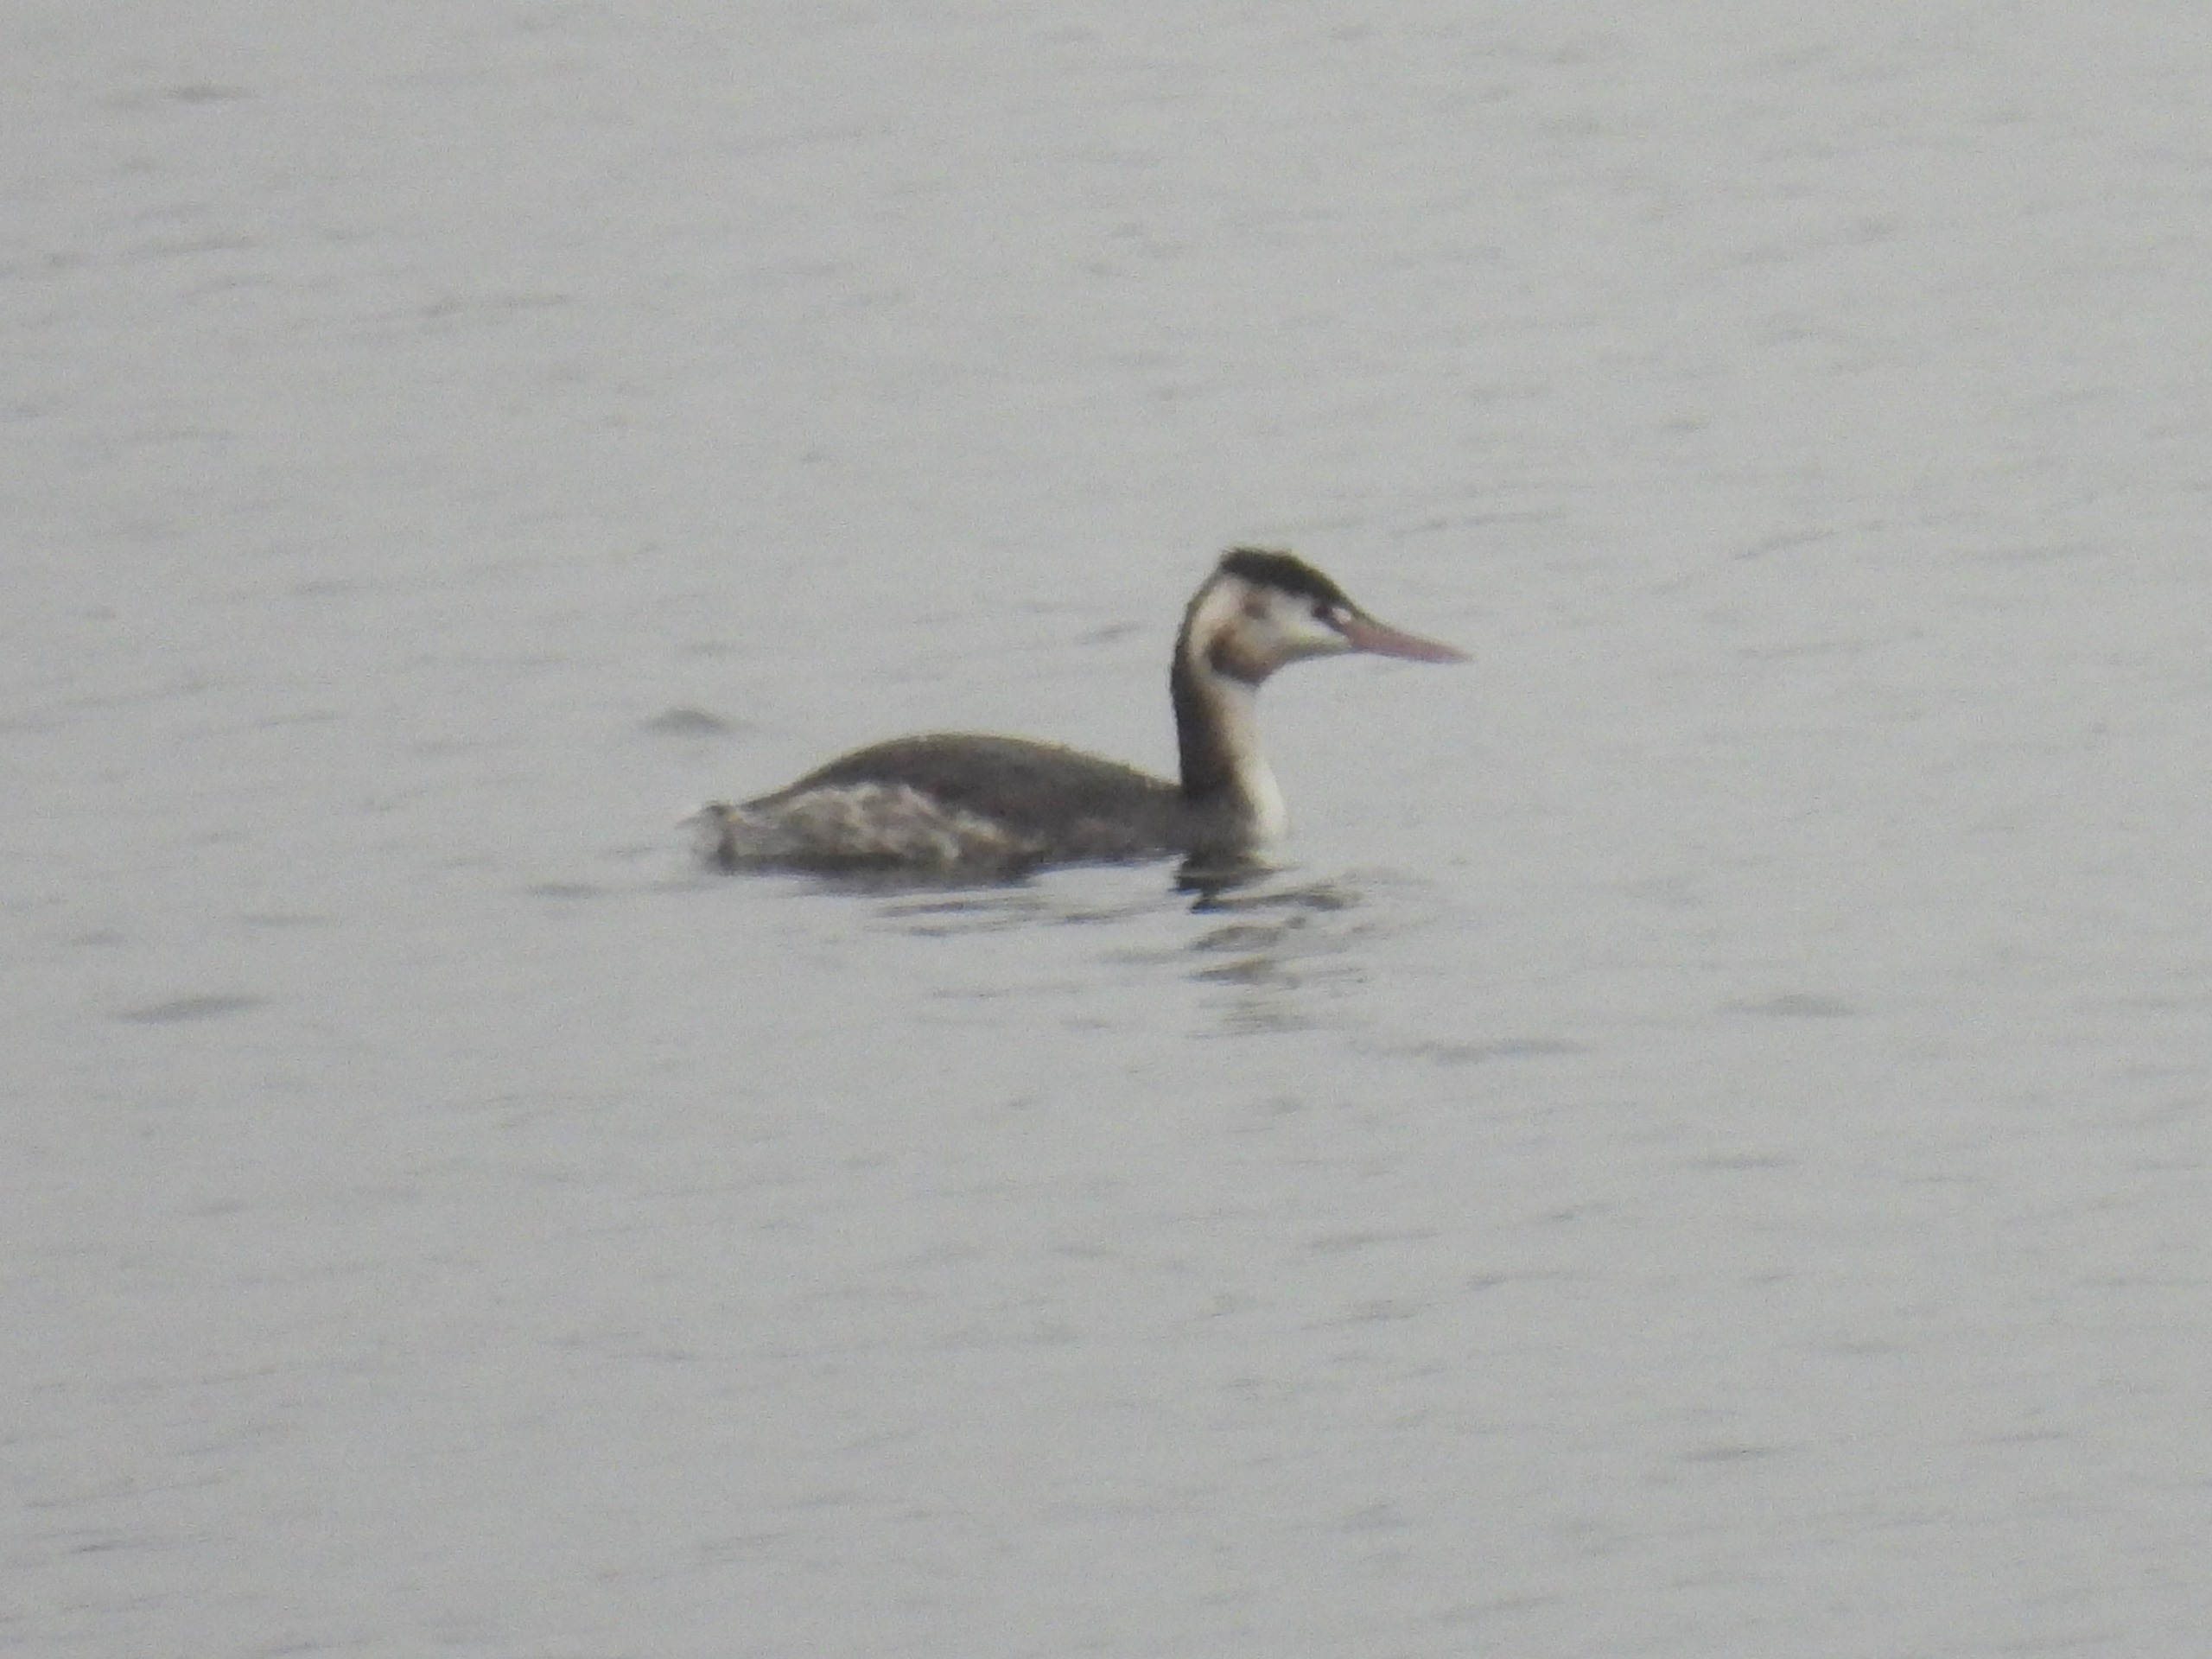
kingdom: Animalia
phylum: Chordata
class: Aves
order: Podicipediformes
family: Podicipedidae
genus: Podiceps
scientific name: Podiceps cristatus
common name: Toppet lappedykker
